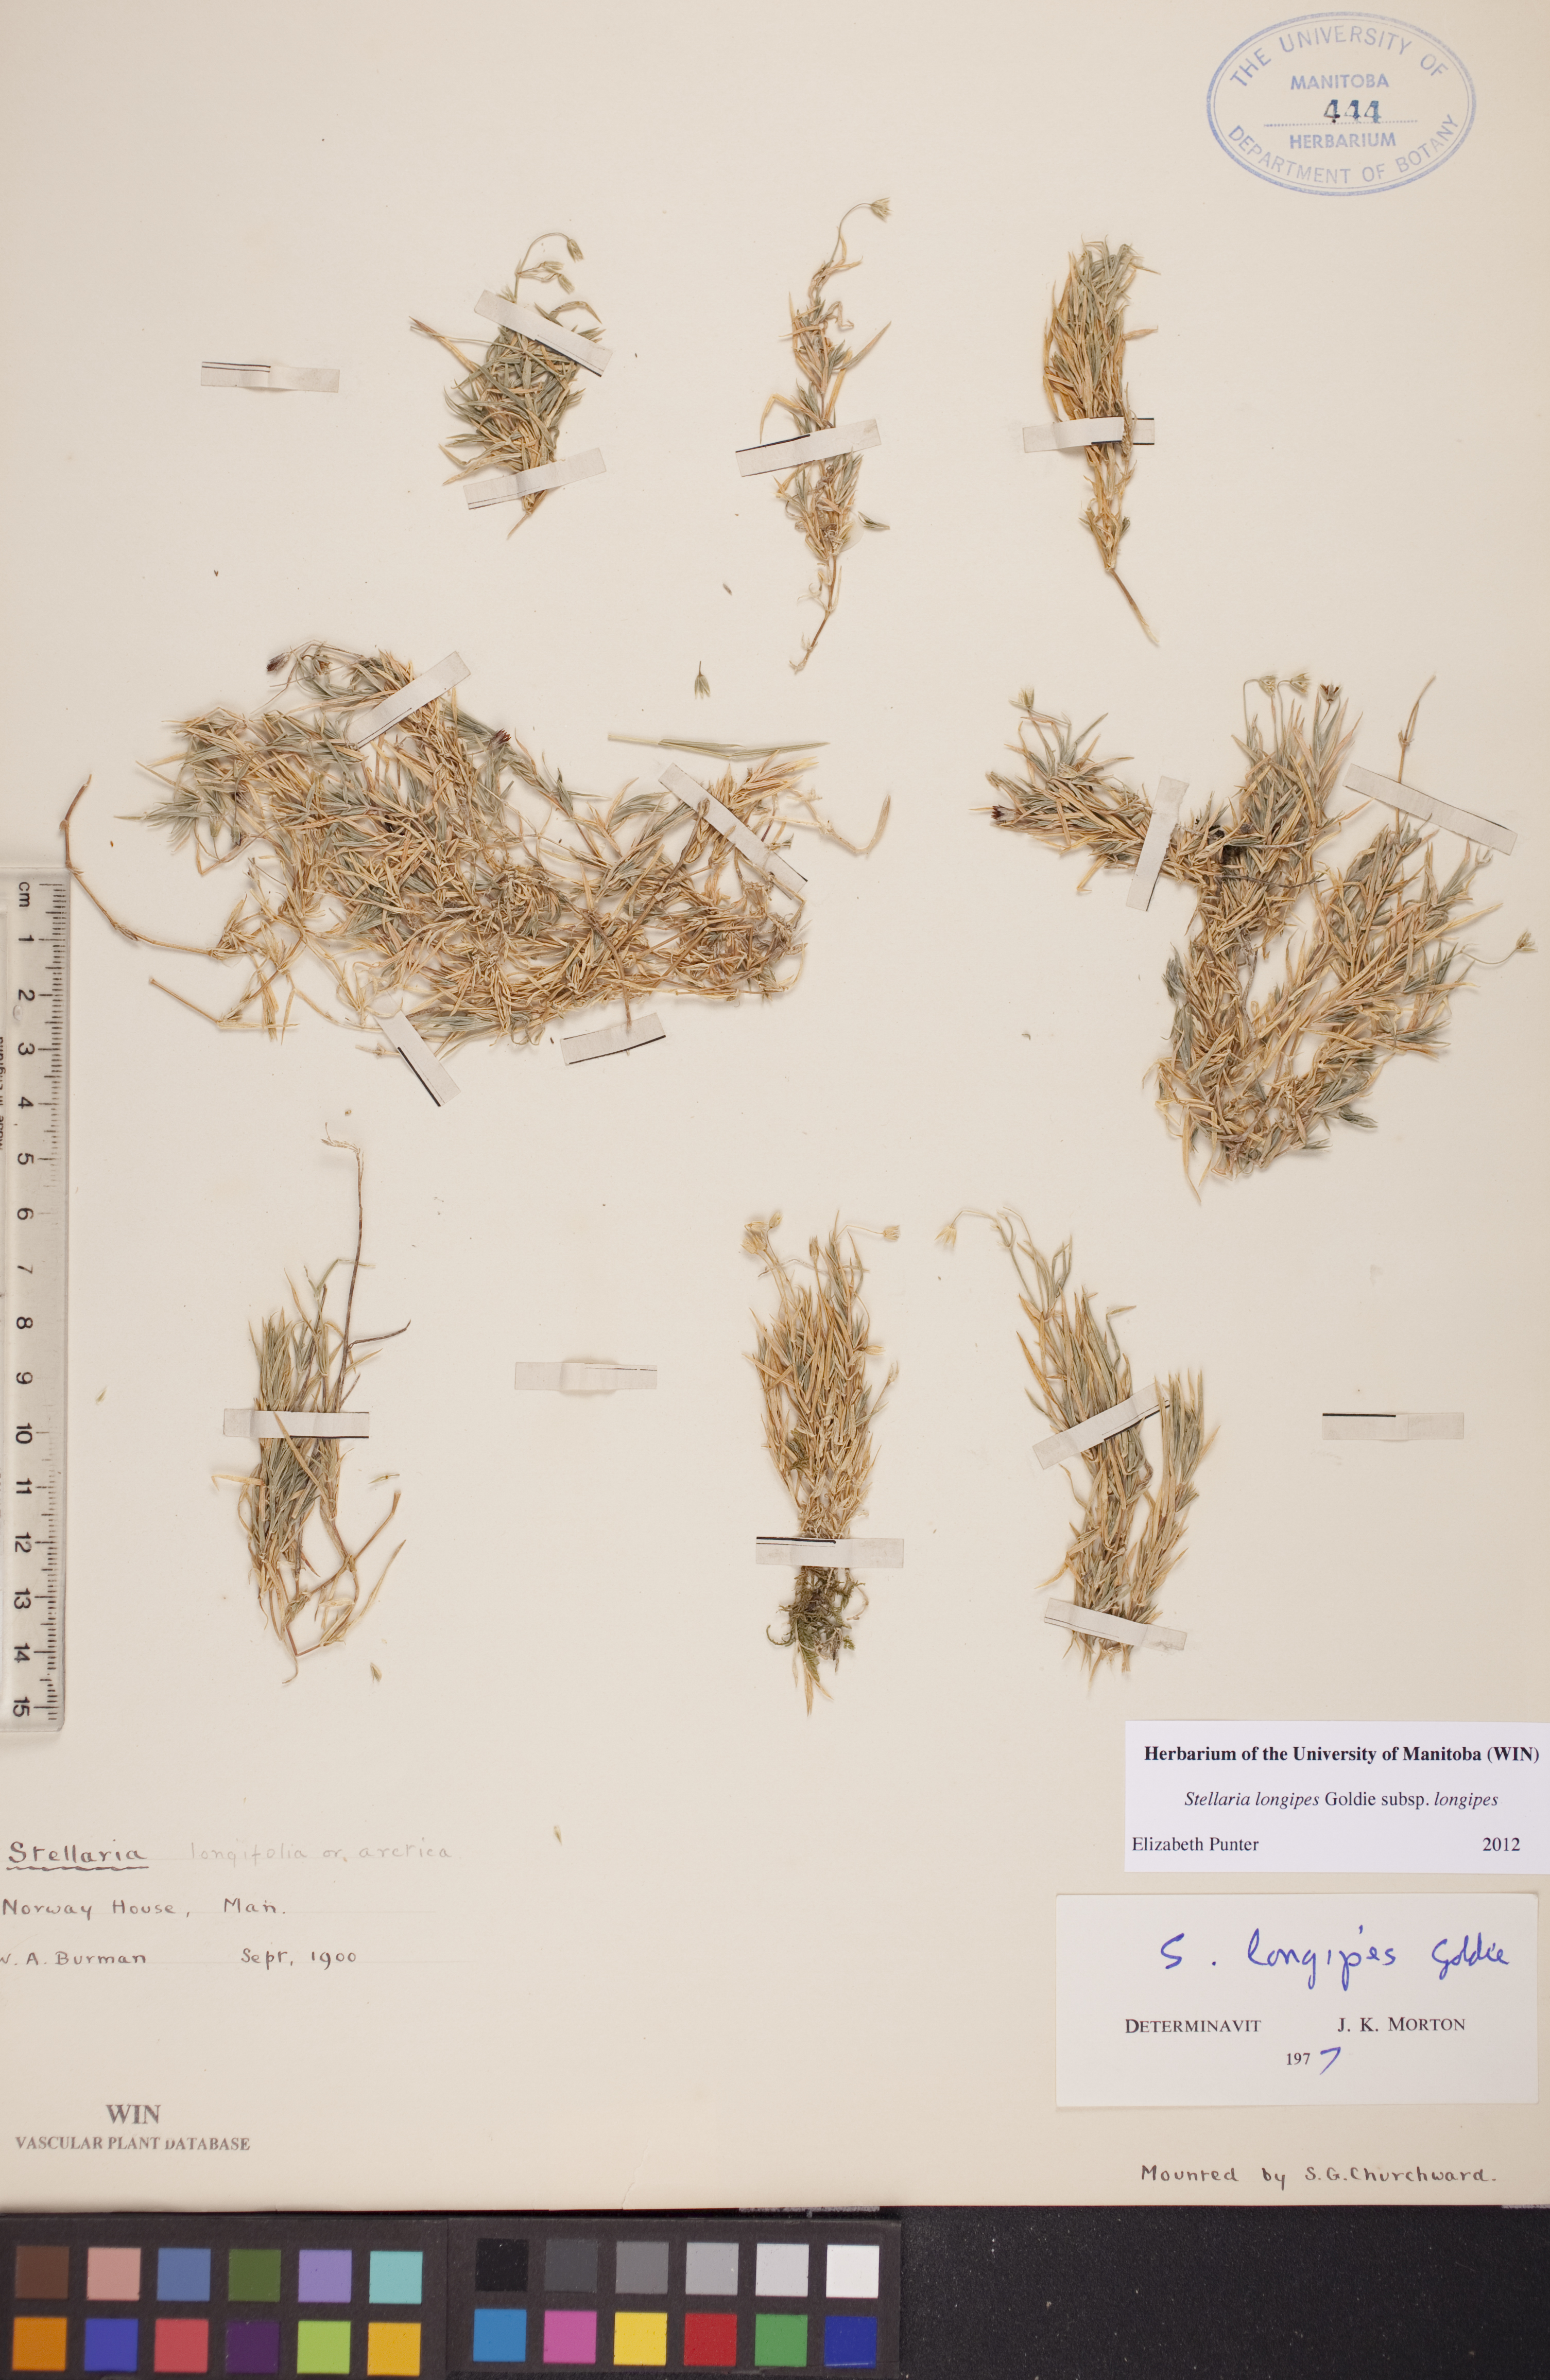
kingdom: Plantae
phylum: Tracheophyta
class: Magnoliopsida
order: Caryophyllales
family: Caryophyllaceae
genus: Stellaria
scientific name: Stellaria longipes
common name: Goldie's starwort
